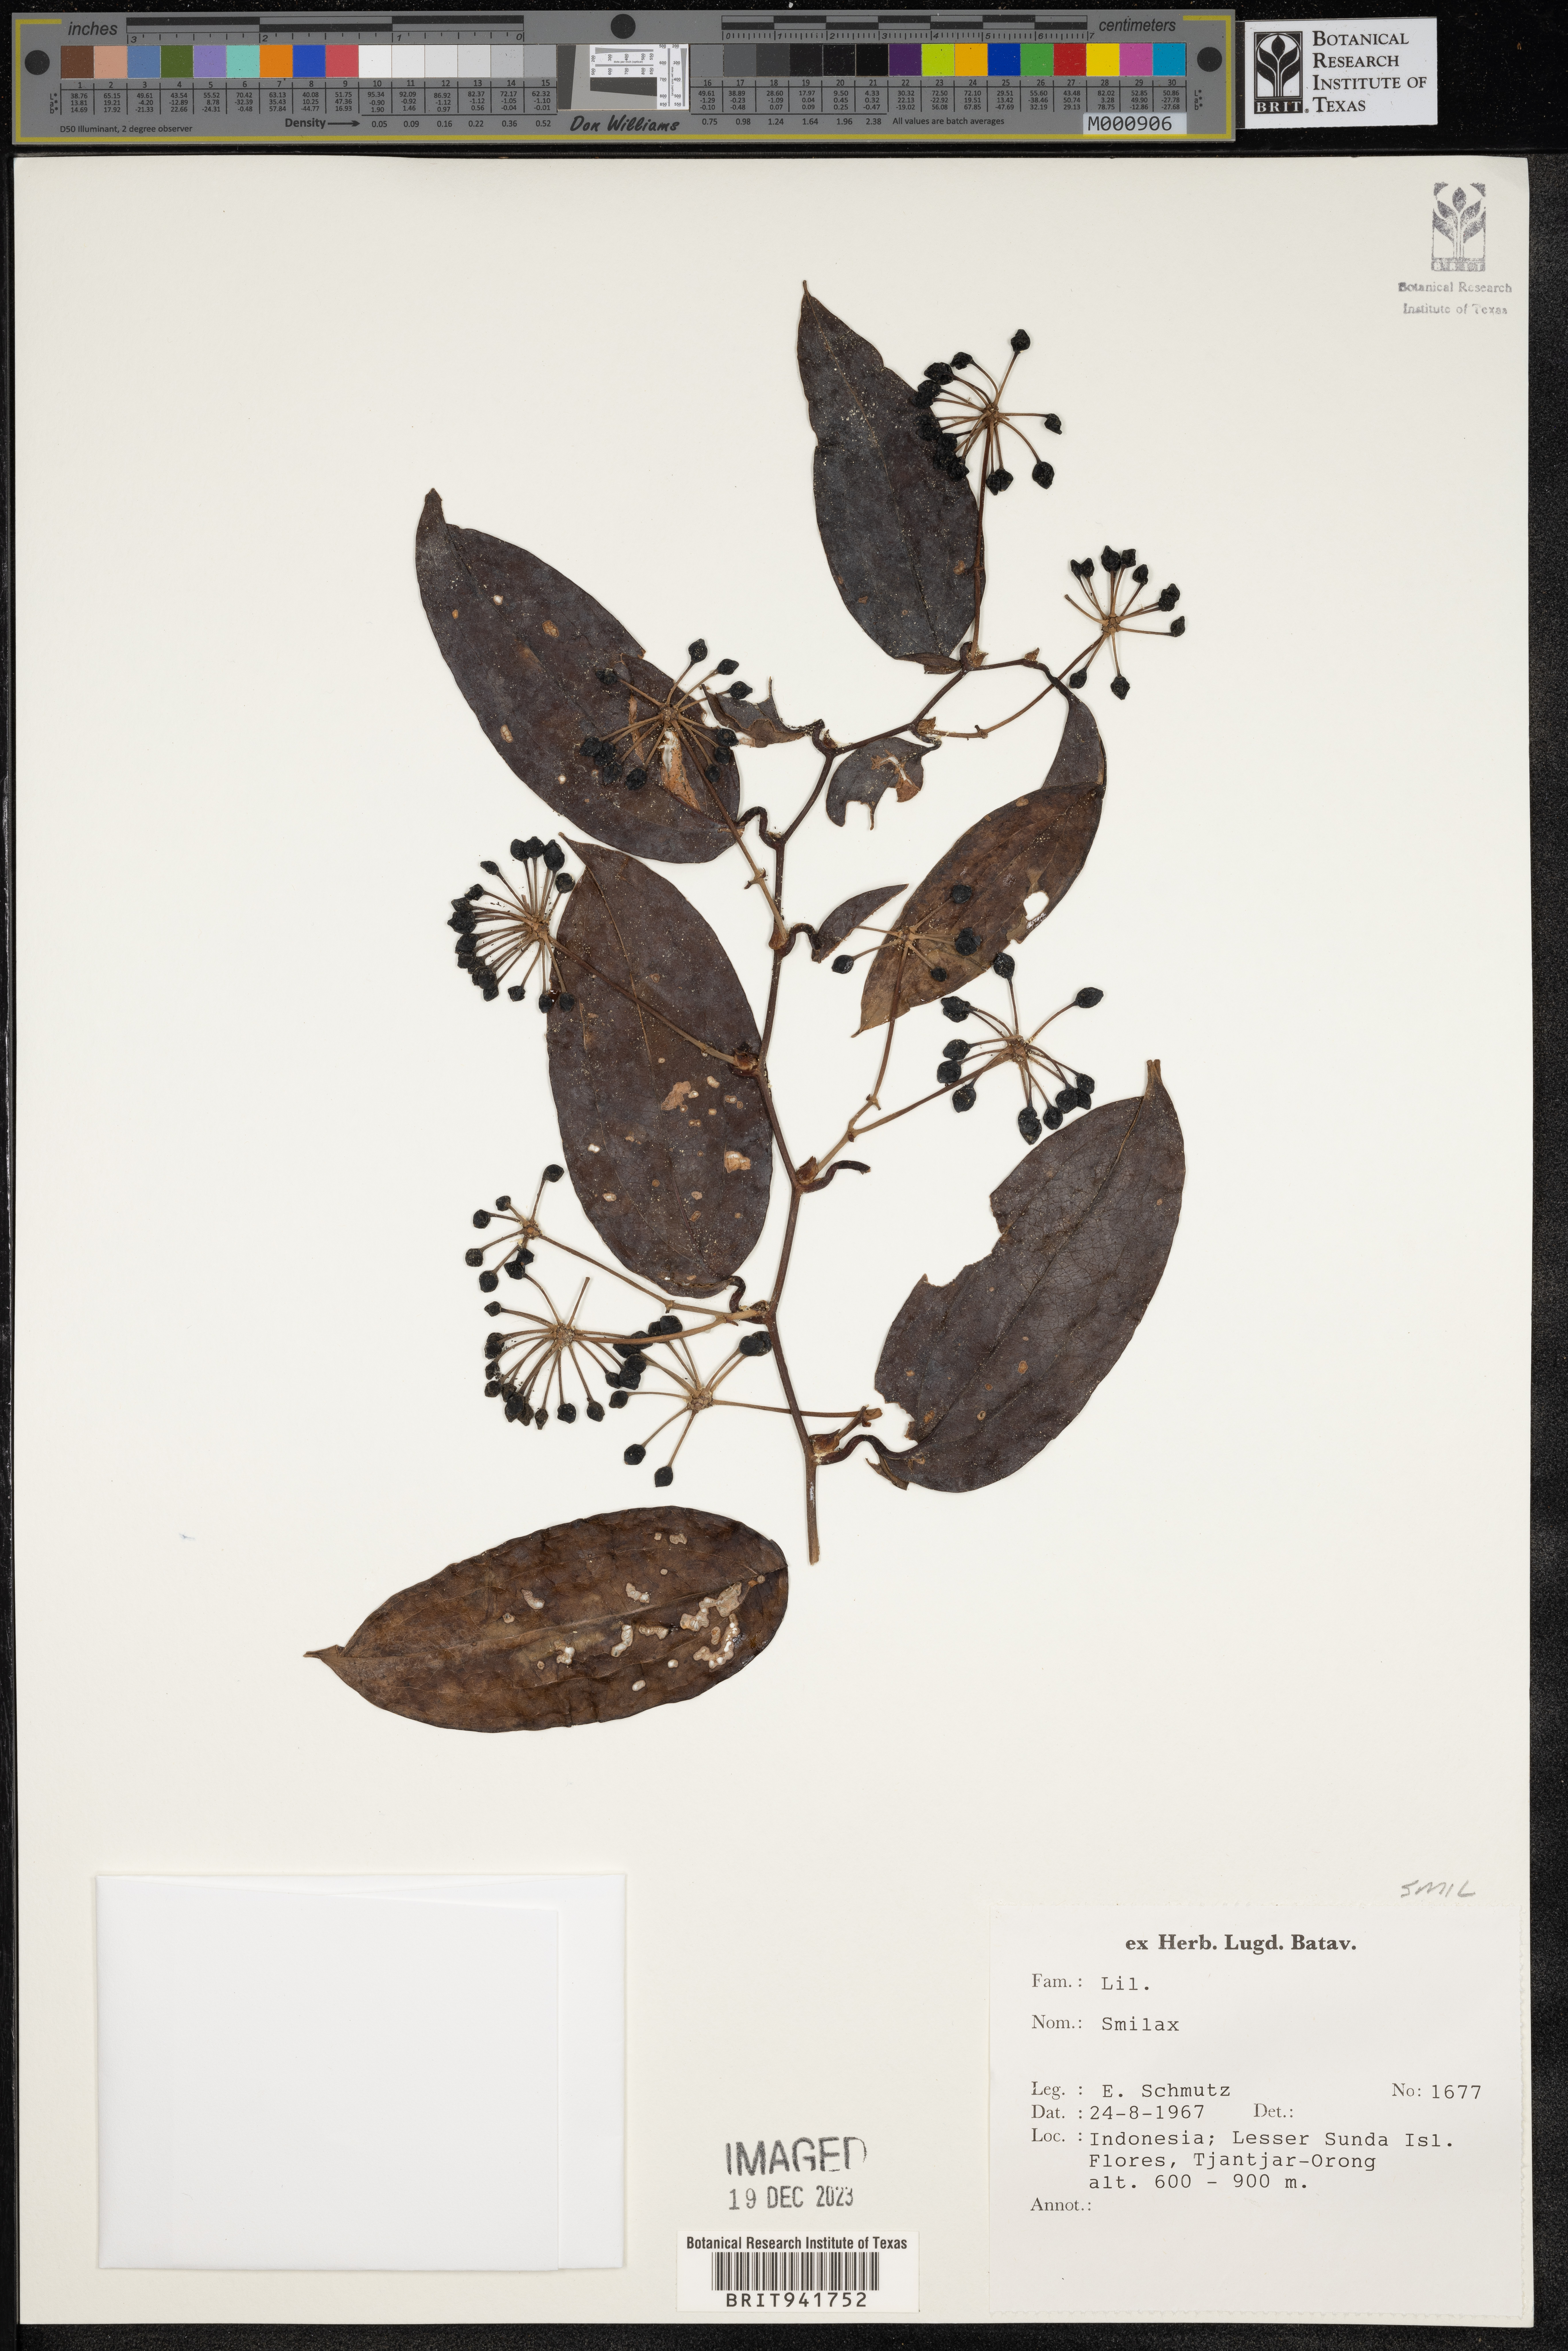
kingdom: Plantae
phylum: Tracheophyta
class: Liliopsida
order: Liliales
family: Smilacaceae
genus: Smilax
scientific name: Smilax
